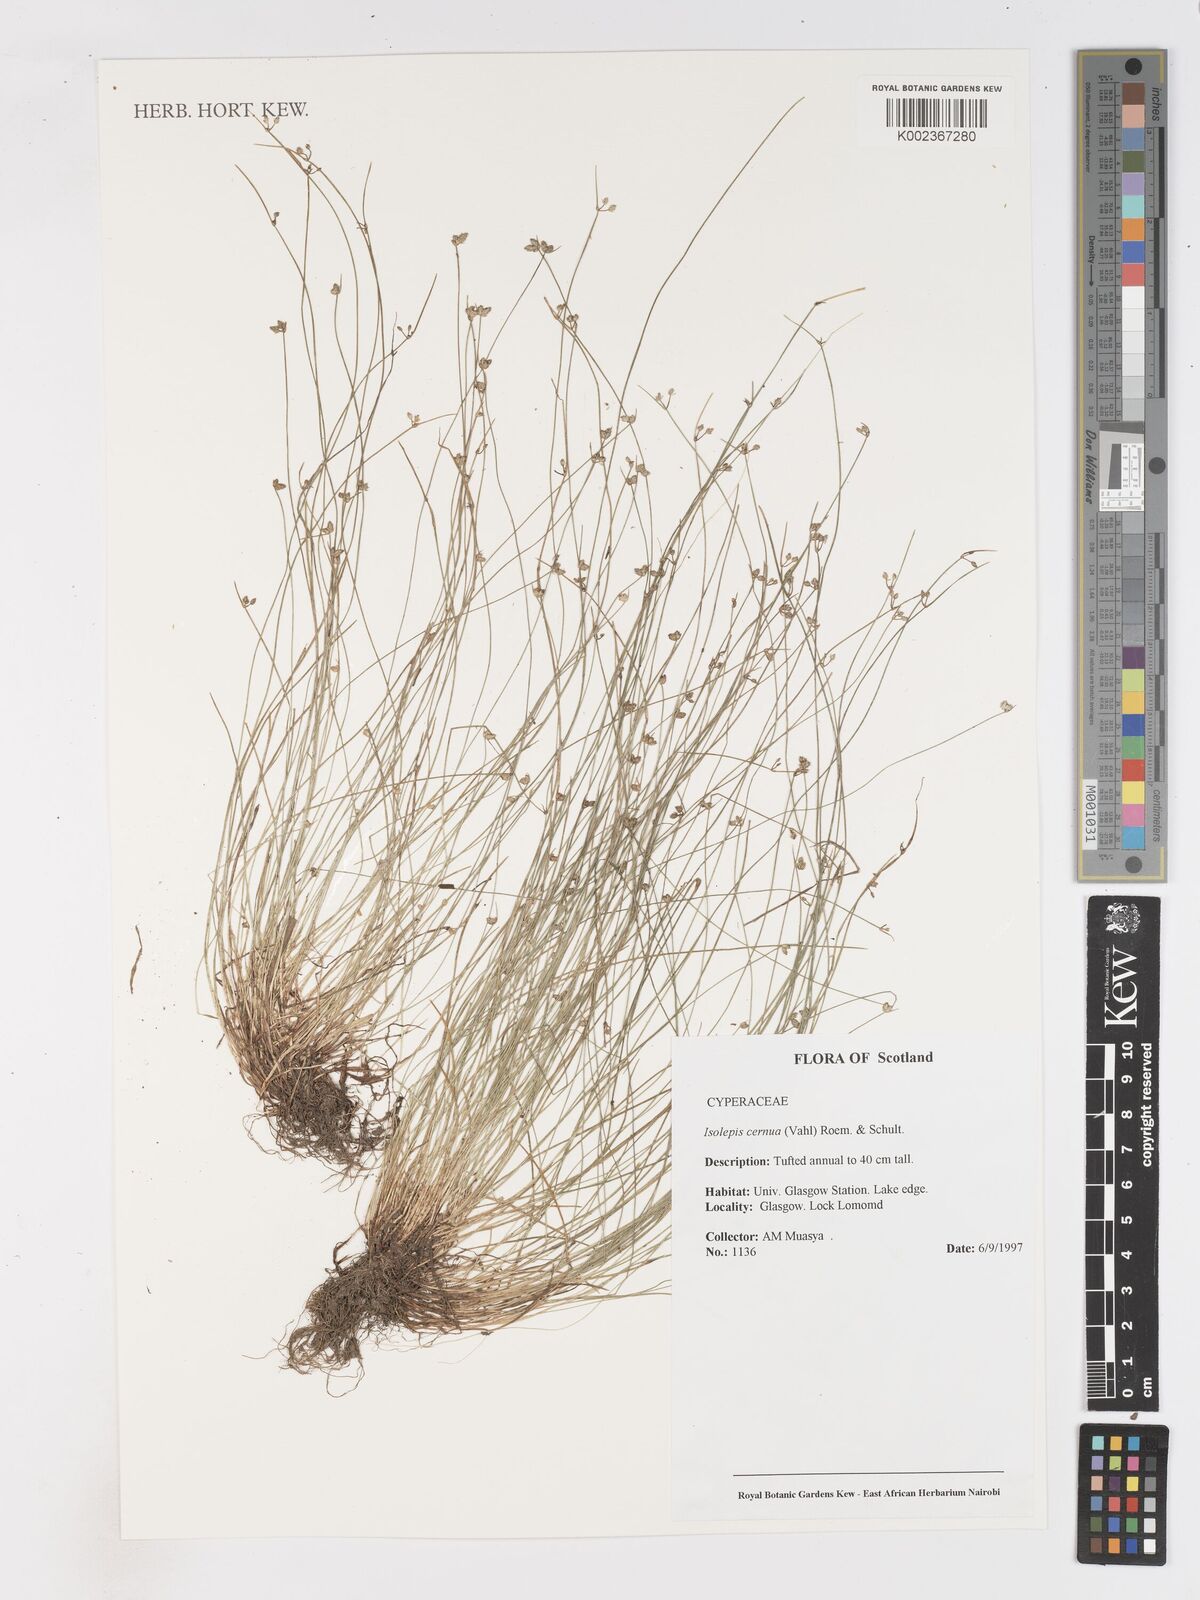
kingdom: Plantae
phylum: Tracheophyta
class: Liliopsida
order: Poales
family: Cyperaceae
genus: Isolepis
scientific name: Isolepis cernua
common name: Slender club-rush
